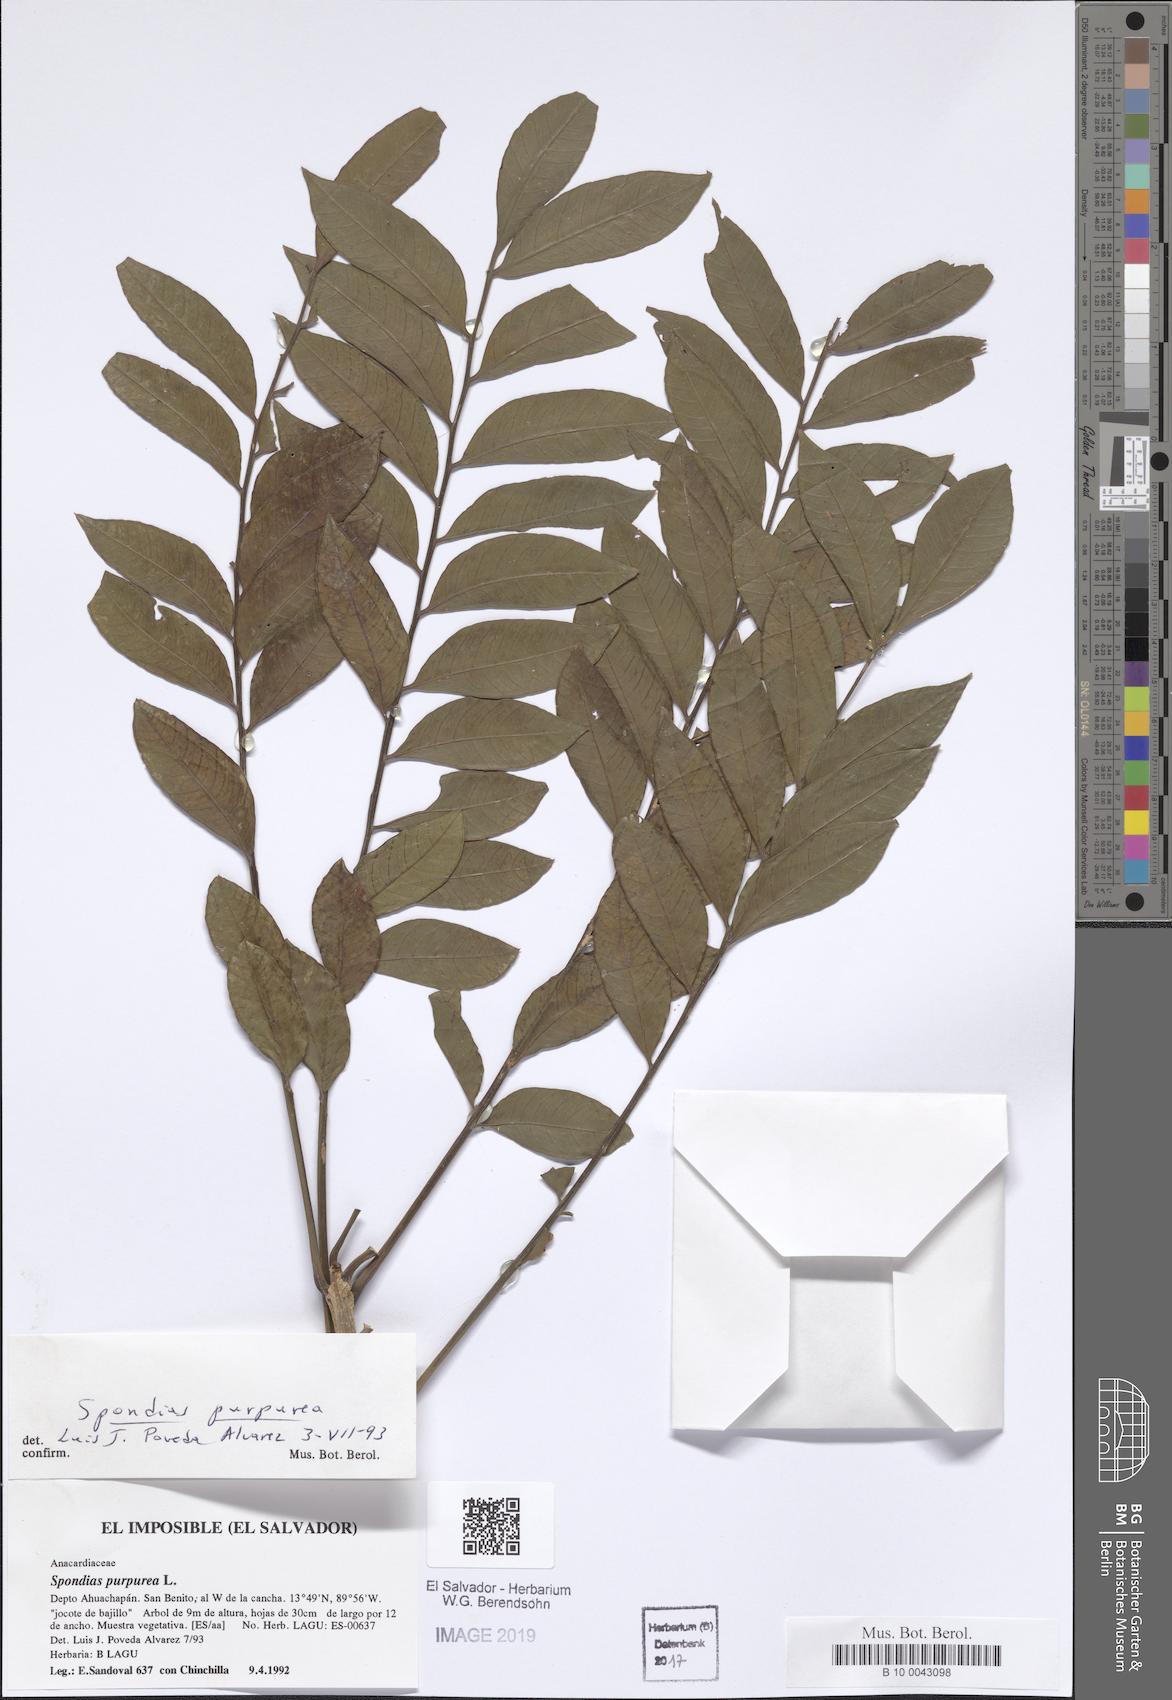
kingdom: Plantae
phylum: Tracheophyta
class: Magnoliopsida
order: Sapindales
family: Anacardiaceae
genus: Spondias
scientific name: Spondias purpurea
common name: Purple mombin
